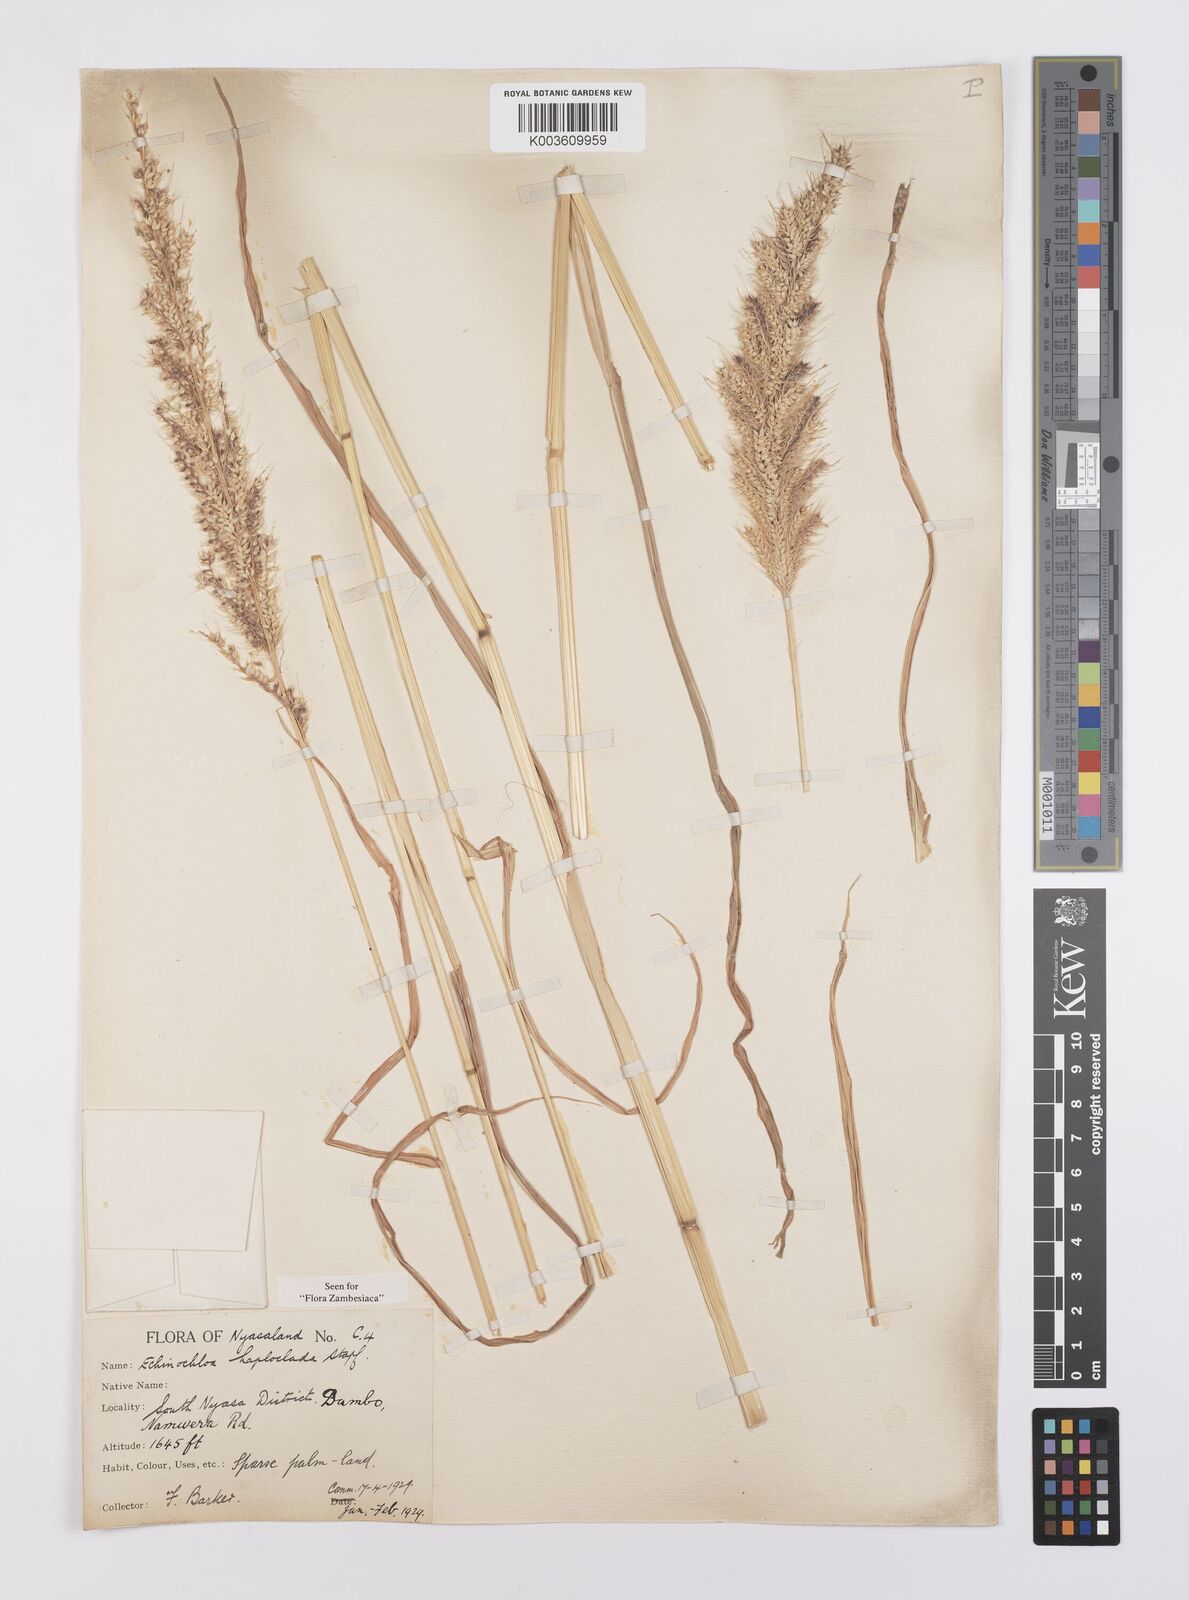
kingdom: Plantae
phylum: Tracheophyta
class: Liliopsida
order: Poales
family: Poaceae
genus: Echinochloa
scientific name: Echinochloa haploclada
